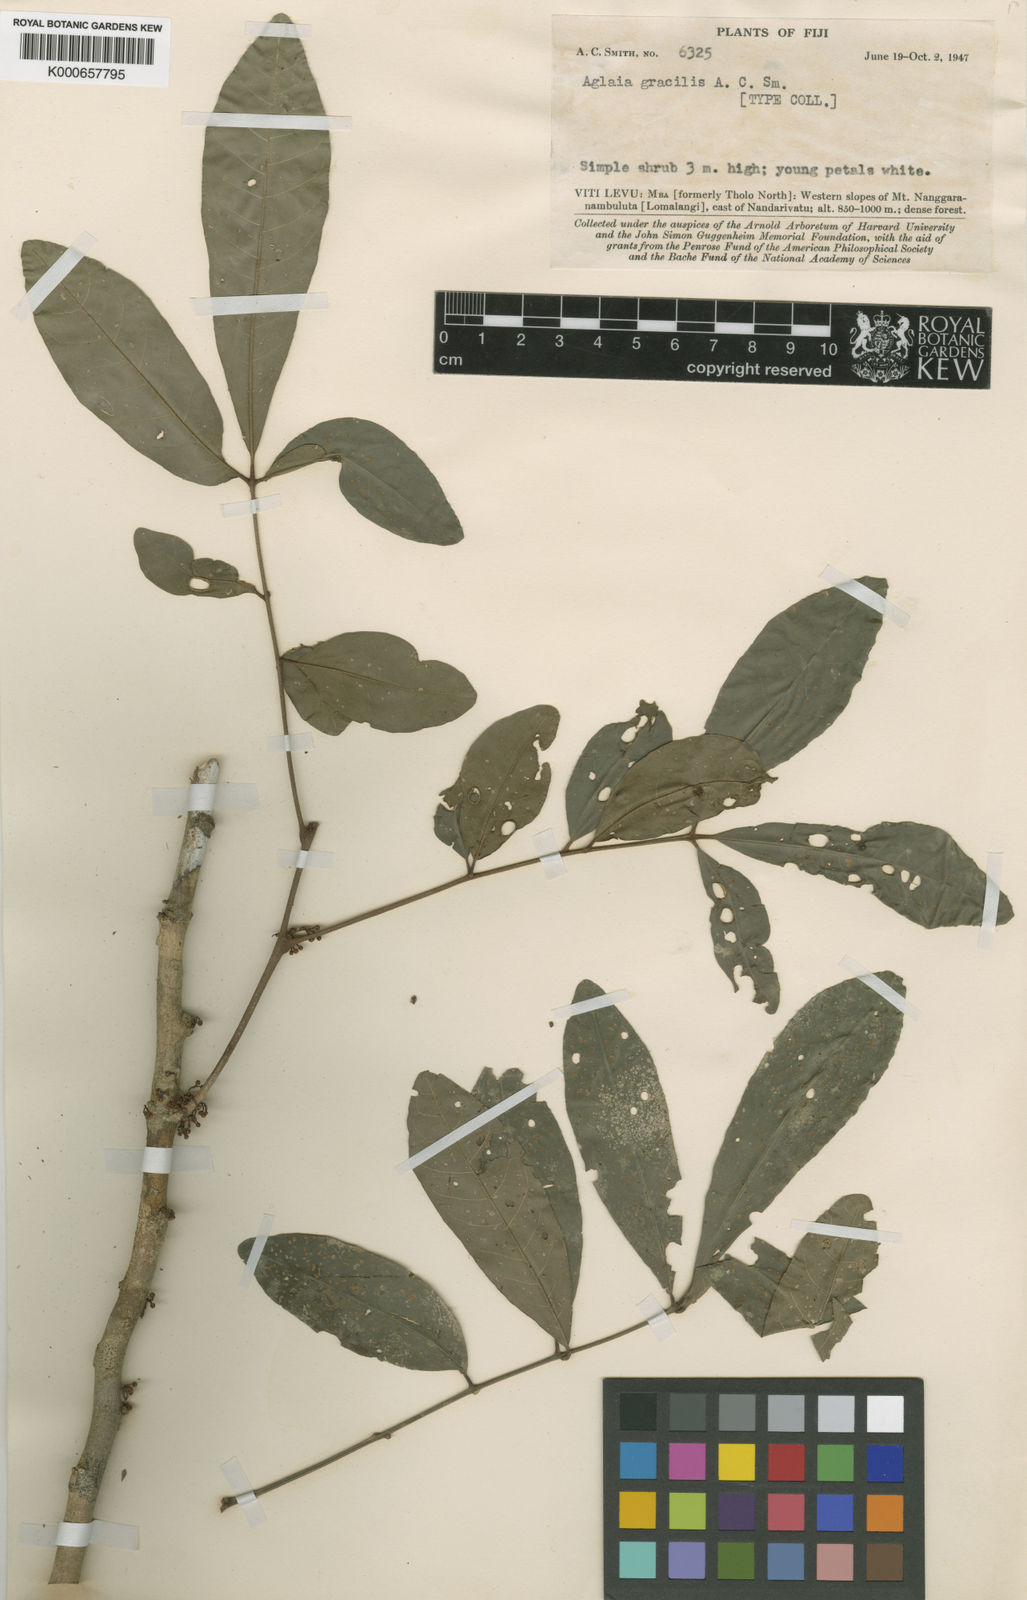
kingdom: Plantae
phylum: Tracheophyta
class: Magnoliopsida
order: Sapindales
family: Meliaceae
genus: Aglaia
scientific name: Aglaia gracilis
